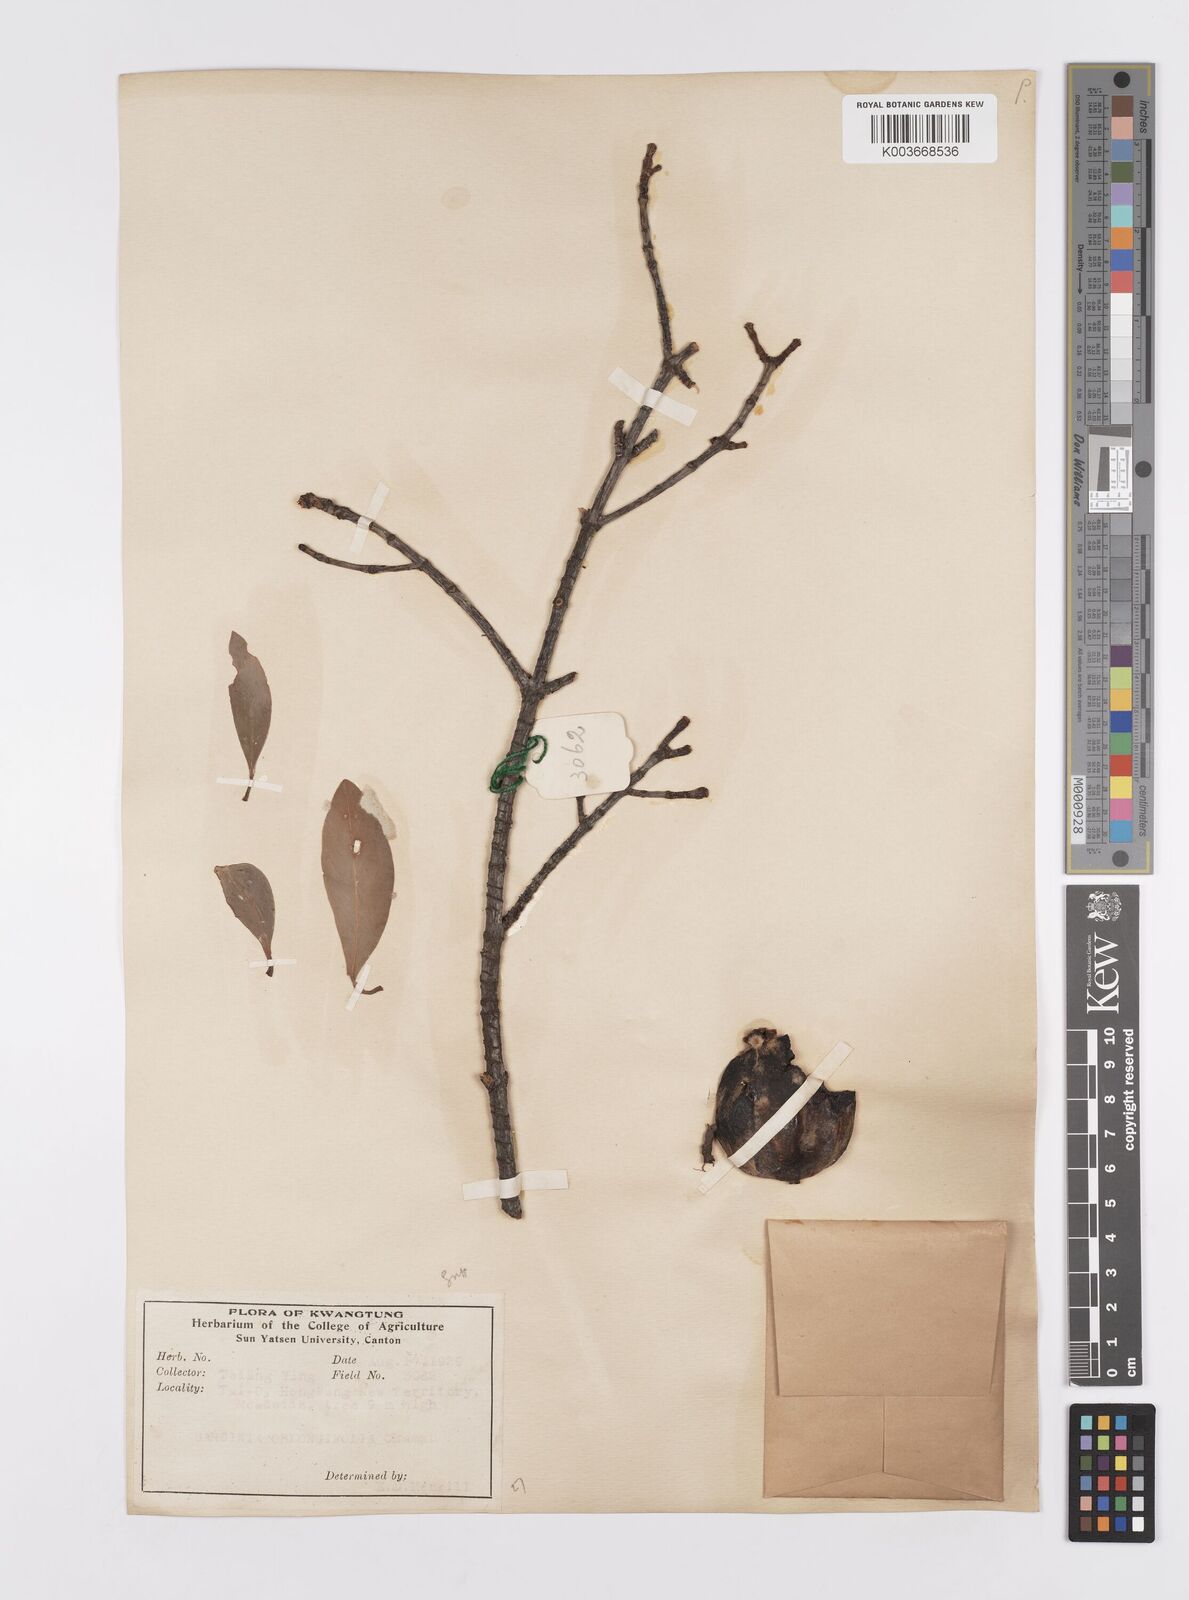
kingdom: Plantae
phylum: Tracheophyta
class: Magnoliopsida
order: Malpighiales
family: Clusiaceae
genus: Garcinia
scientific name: Garcinia oblongifolia
